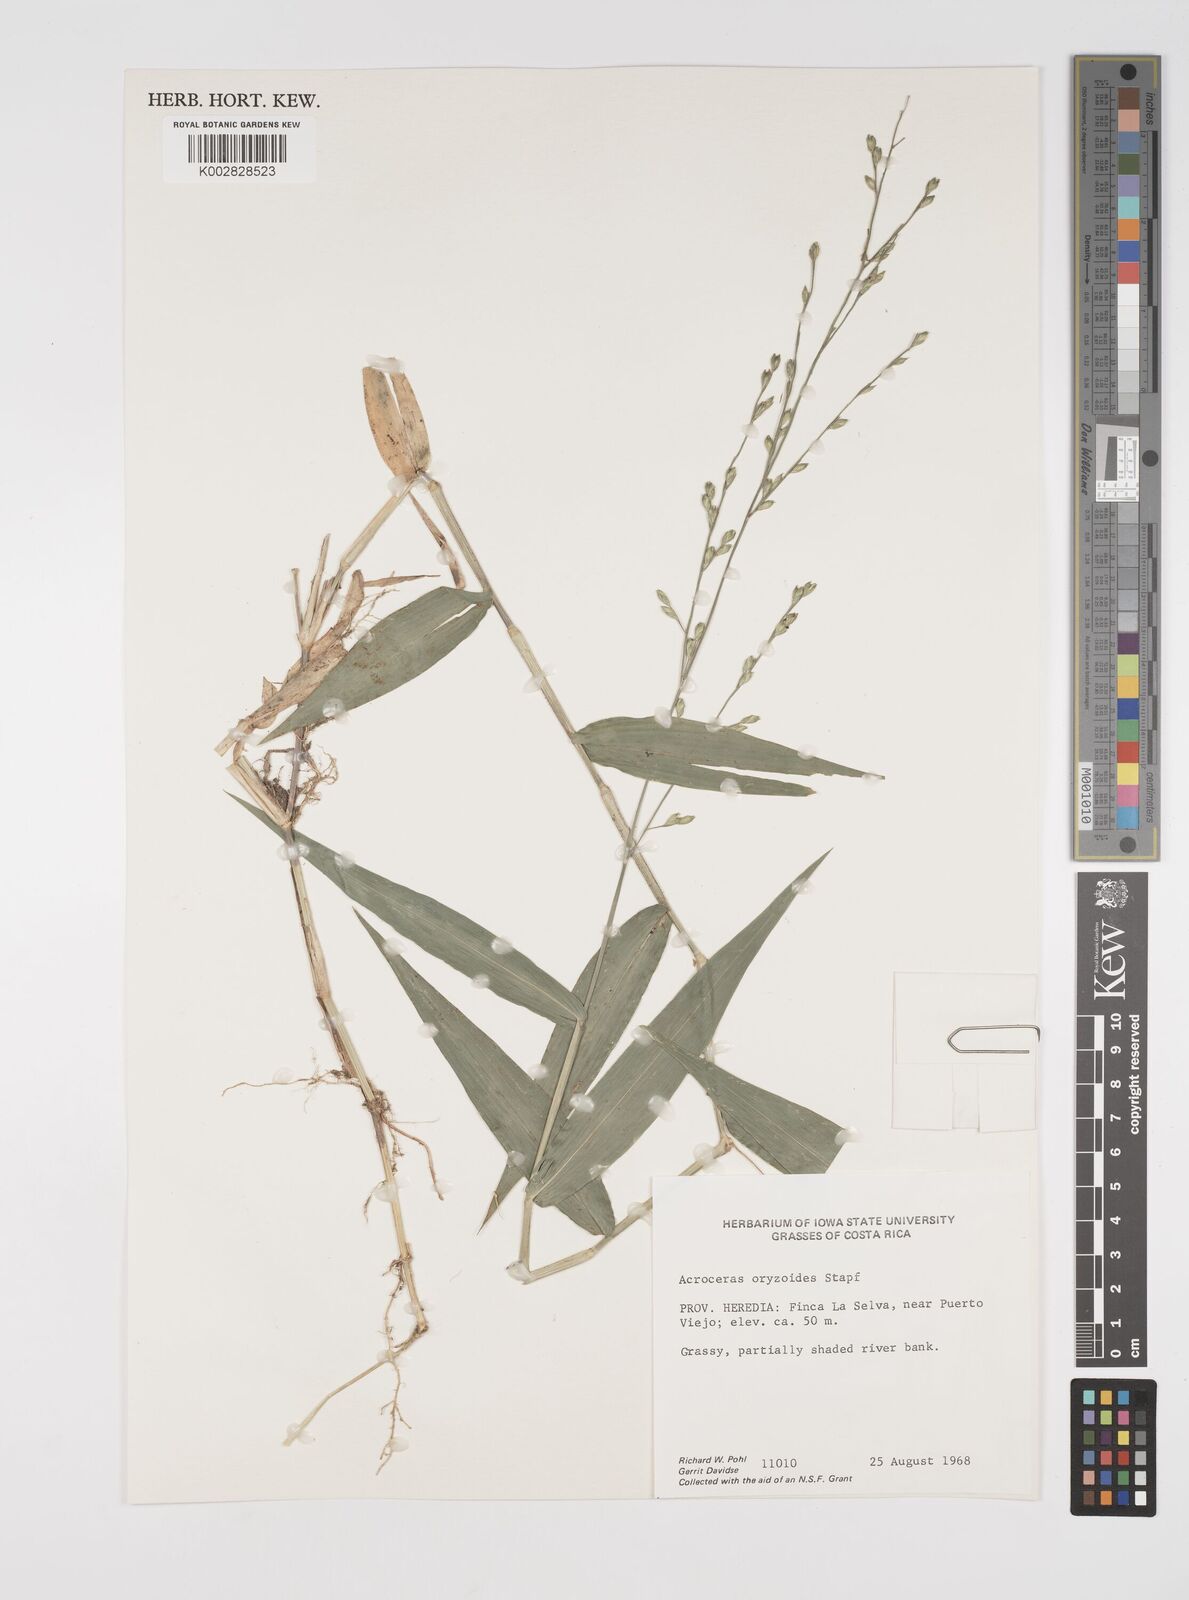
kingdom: Plantae
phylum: Tracheophyta
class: Liliopsida
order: Poales
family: Poaceae
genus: Acroceras
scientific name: Acroceras zizanioides
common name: Oat grass
